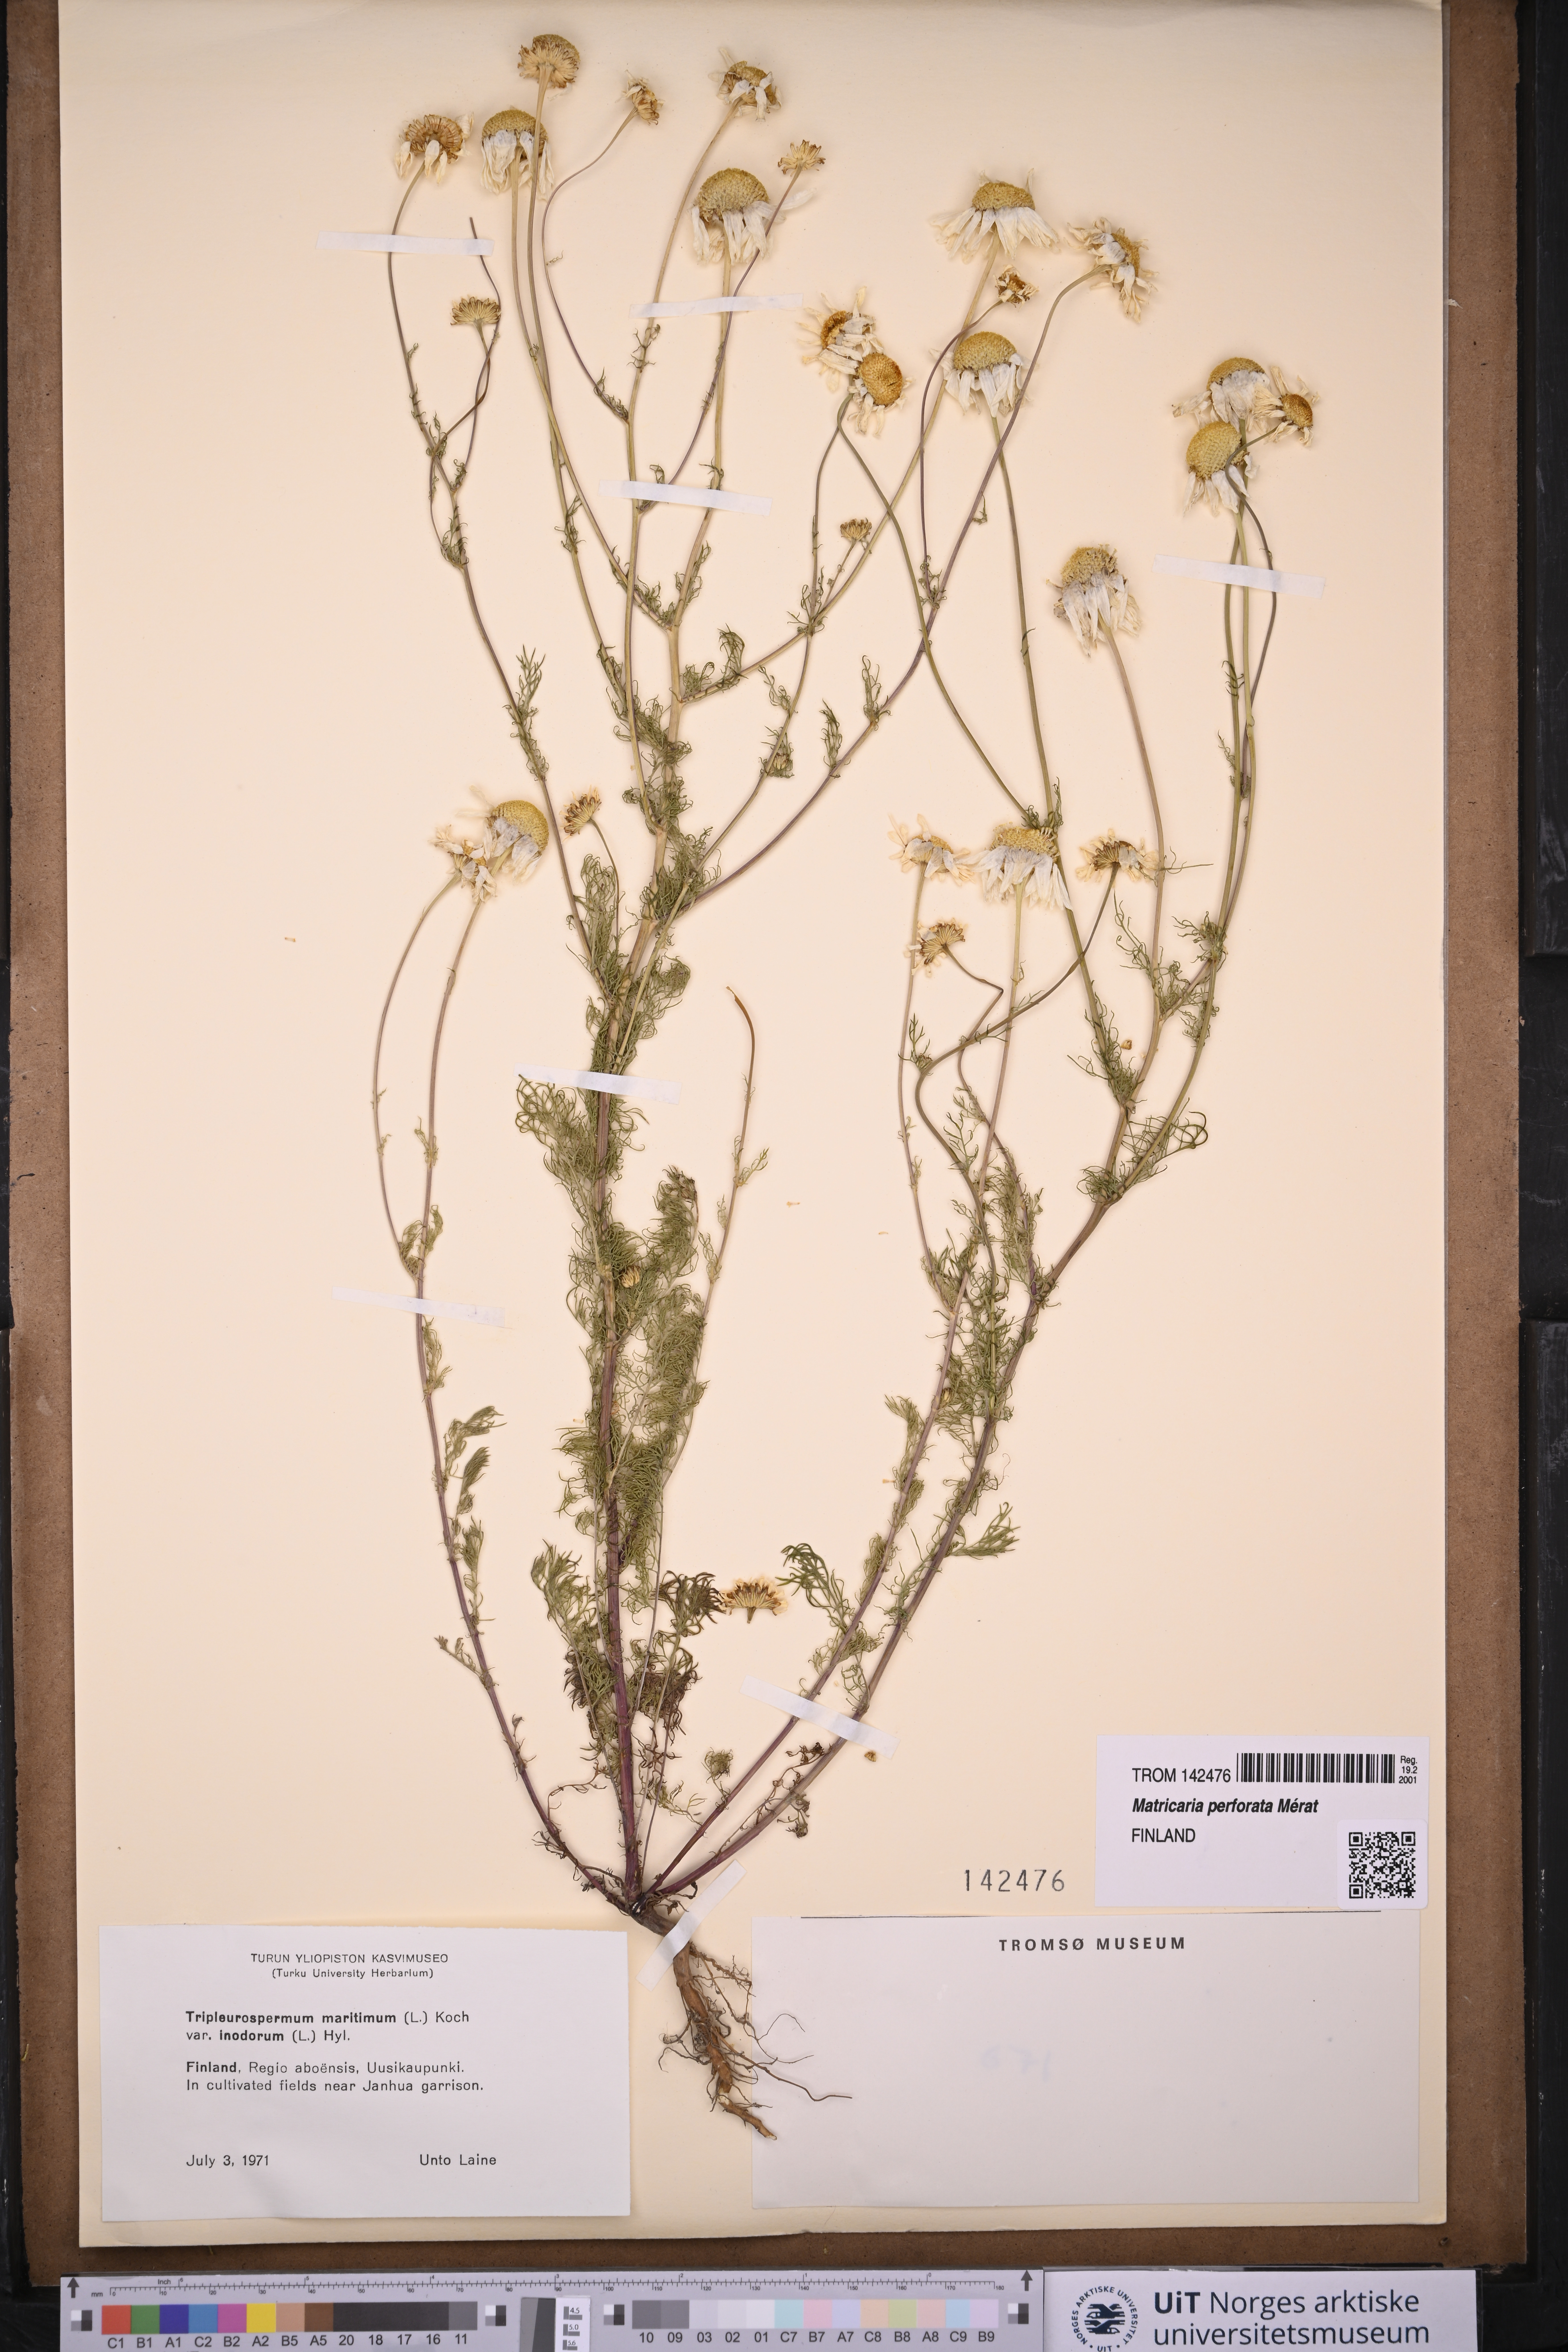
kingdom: Plantae
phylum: Tracheophyta
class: Magnoliopsida
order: Asterales
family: Asteraceae
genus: Tripleurospermum
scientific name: Tripleurospermum inodorum
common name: Scentless mayweed
